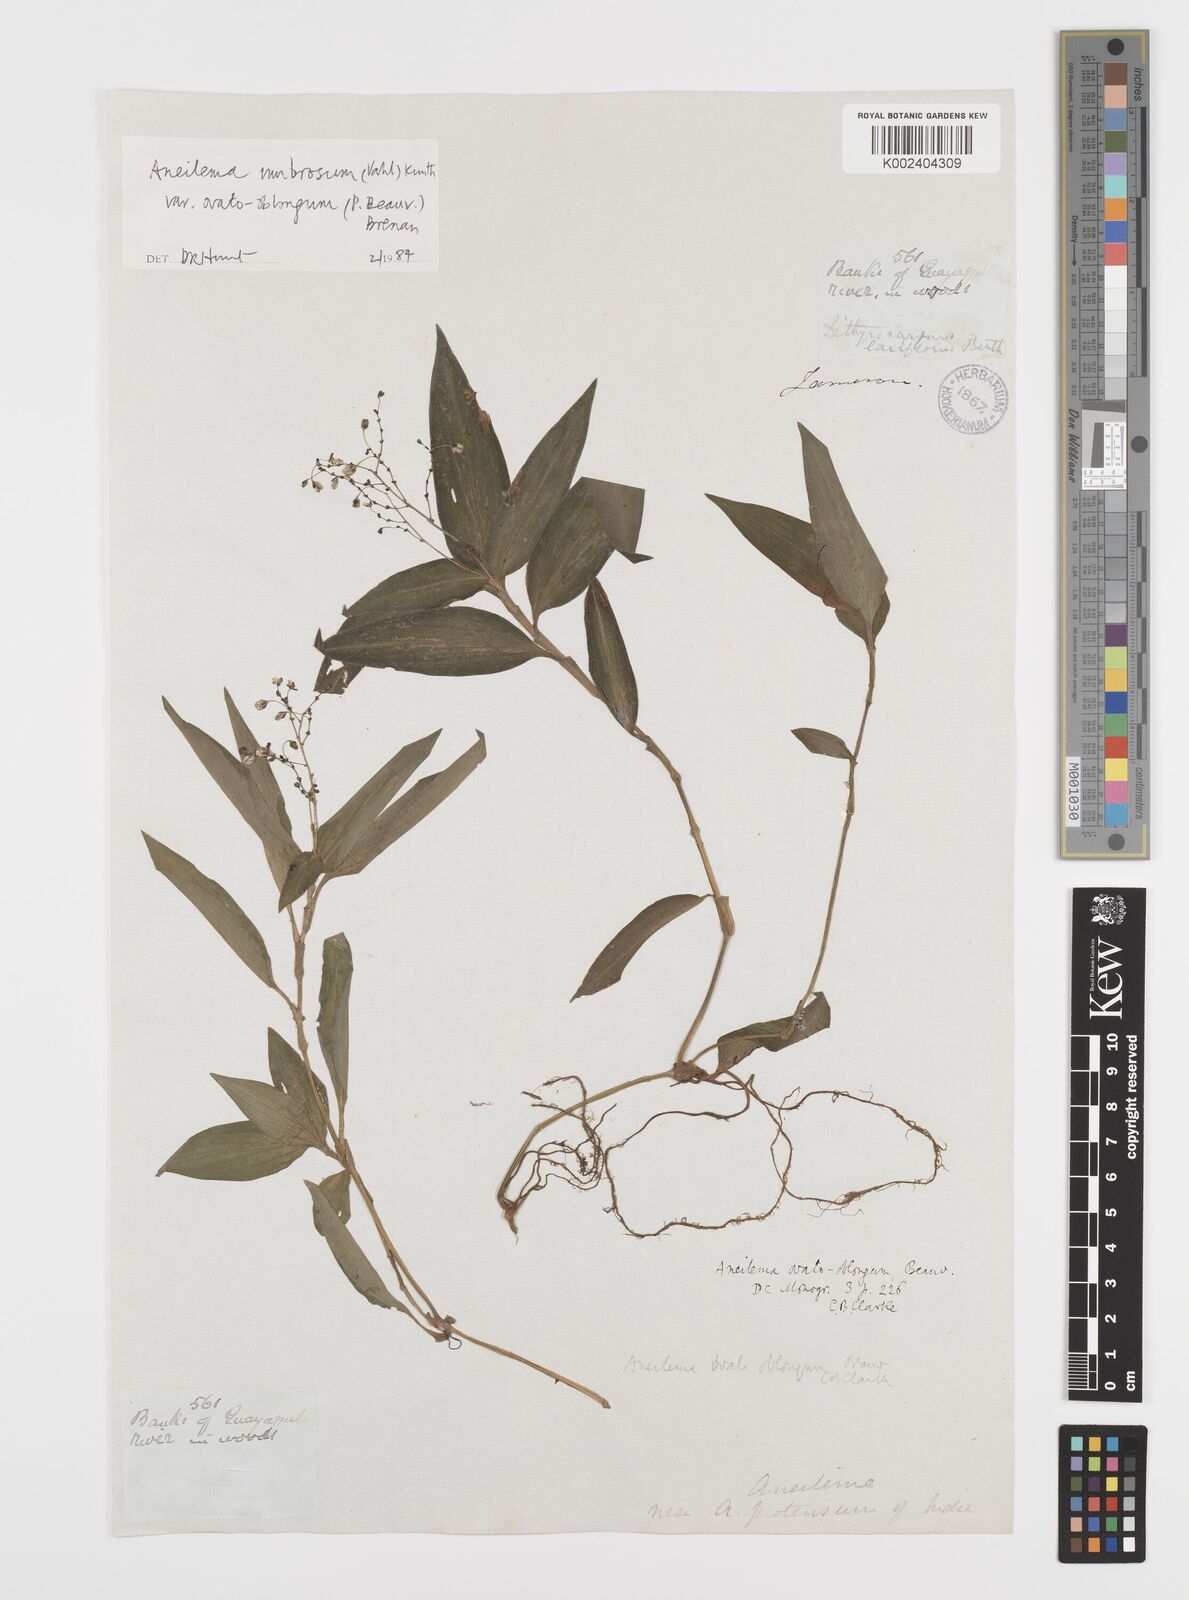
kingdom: Plantae
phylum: Tracheophyta
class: Liliopsida
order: Commelinales
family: Commelinaceae
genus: Aneilema
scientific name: Aneilema umbrosum
